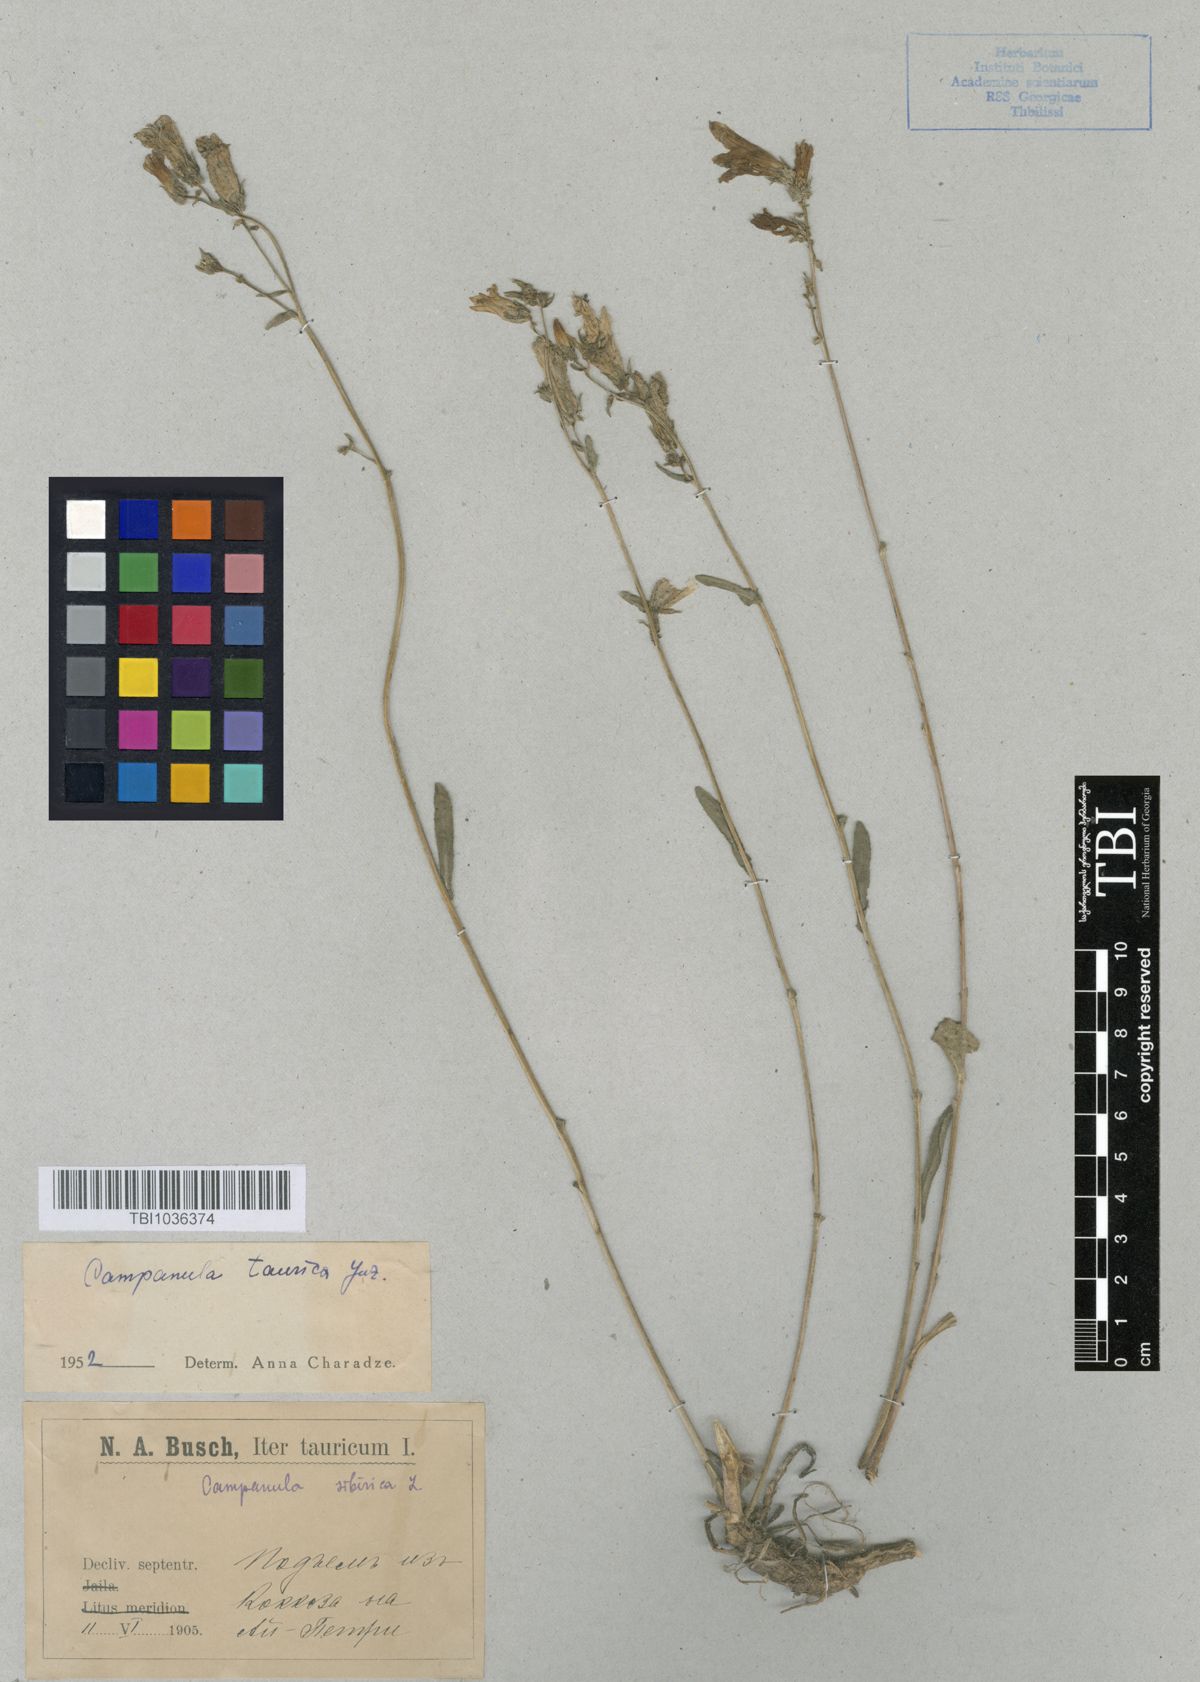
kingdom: Plantae
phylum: Tracheophyta
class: Magnoliopsida
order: Asterales
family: Campanulaceae
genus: Campanula
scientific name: Campanula sibirica
